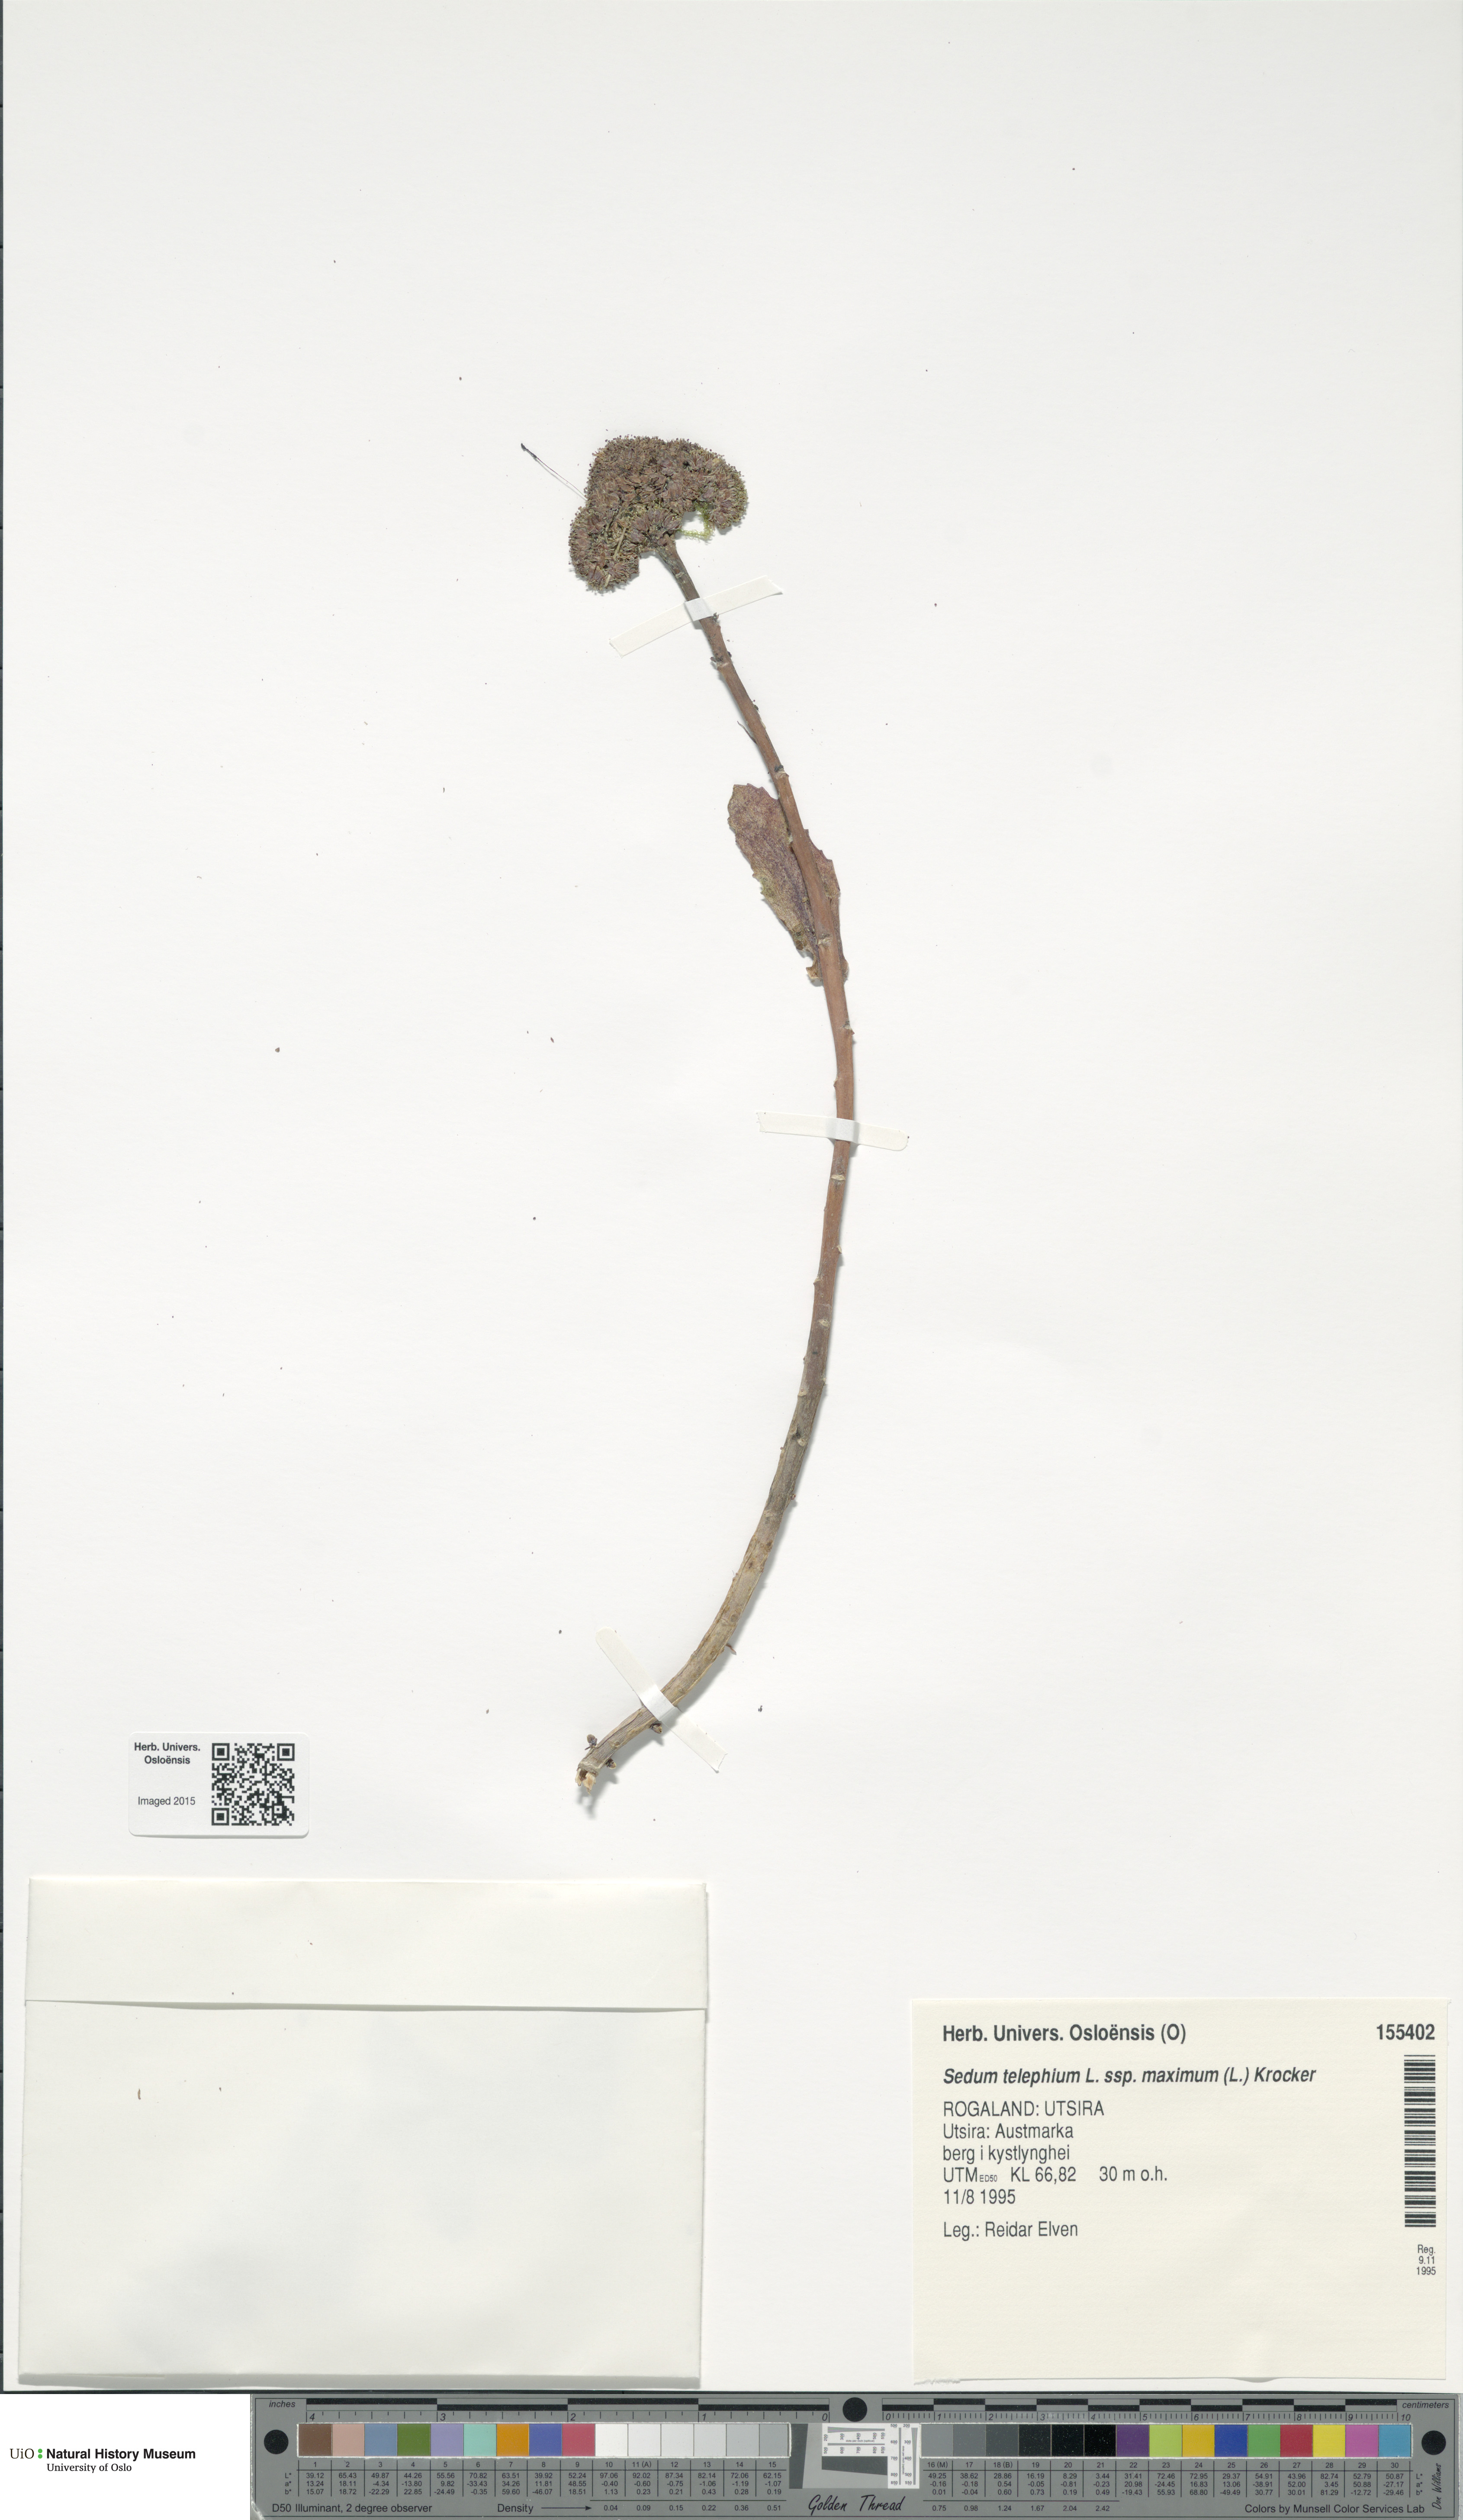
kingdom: Plantae
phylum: Tracheophyta
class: Magnoliopsida
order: Saxifragales
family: Crassulaceae
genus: Hylotelephium
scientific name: Hylotelephium maximum
